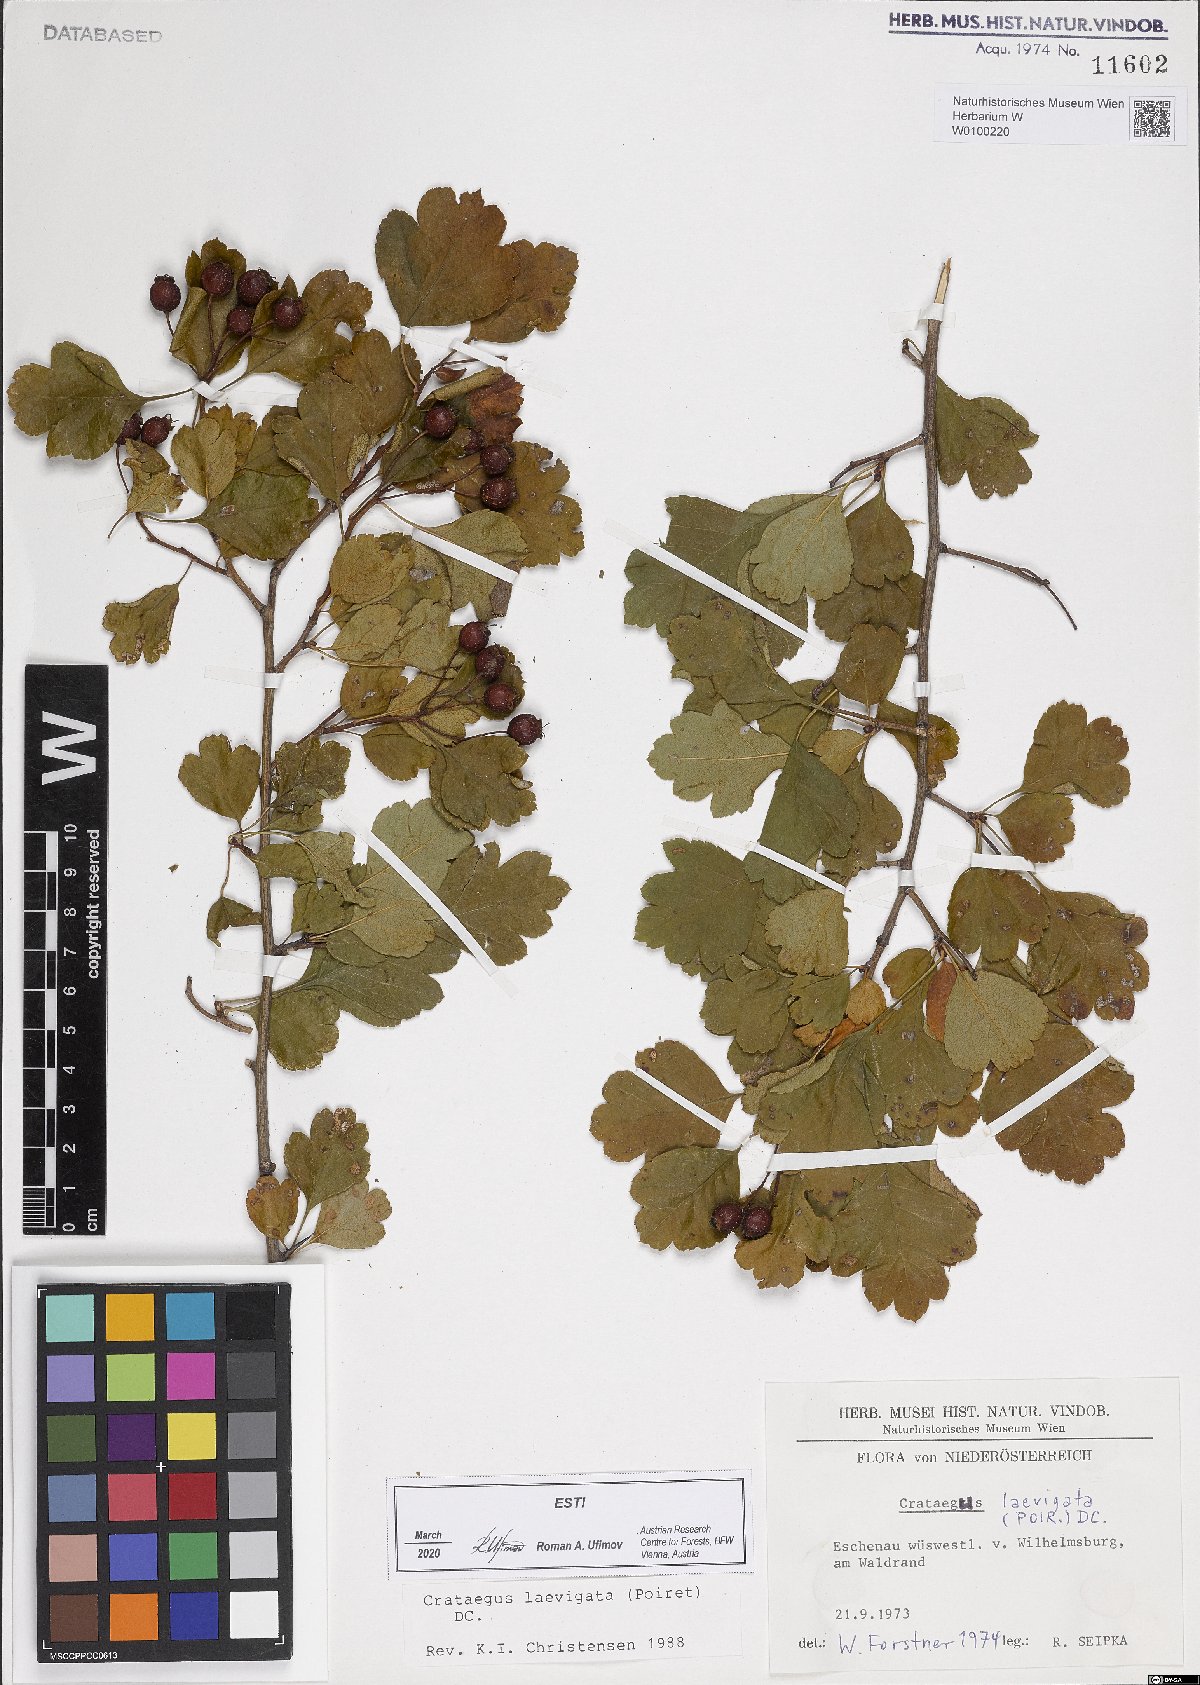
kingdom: Plantae
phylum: Tracheophyta
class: Magnoliopsida
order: Rosales
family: Rosaceae
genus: Crataegus
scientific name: Crataegus laevigata
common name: Midland hawthorn
